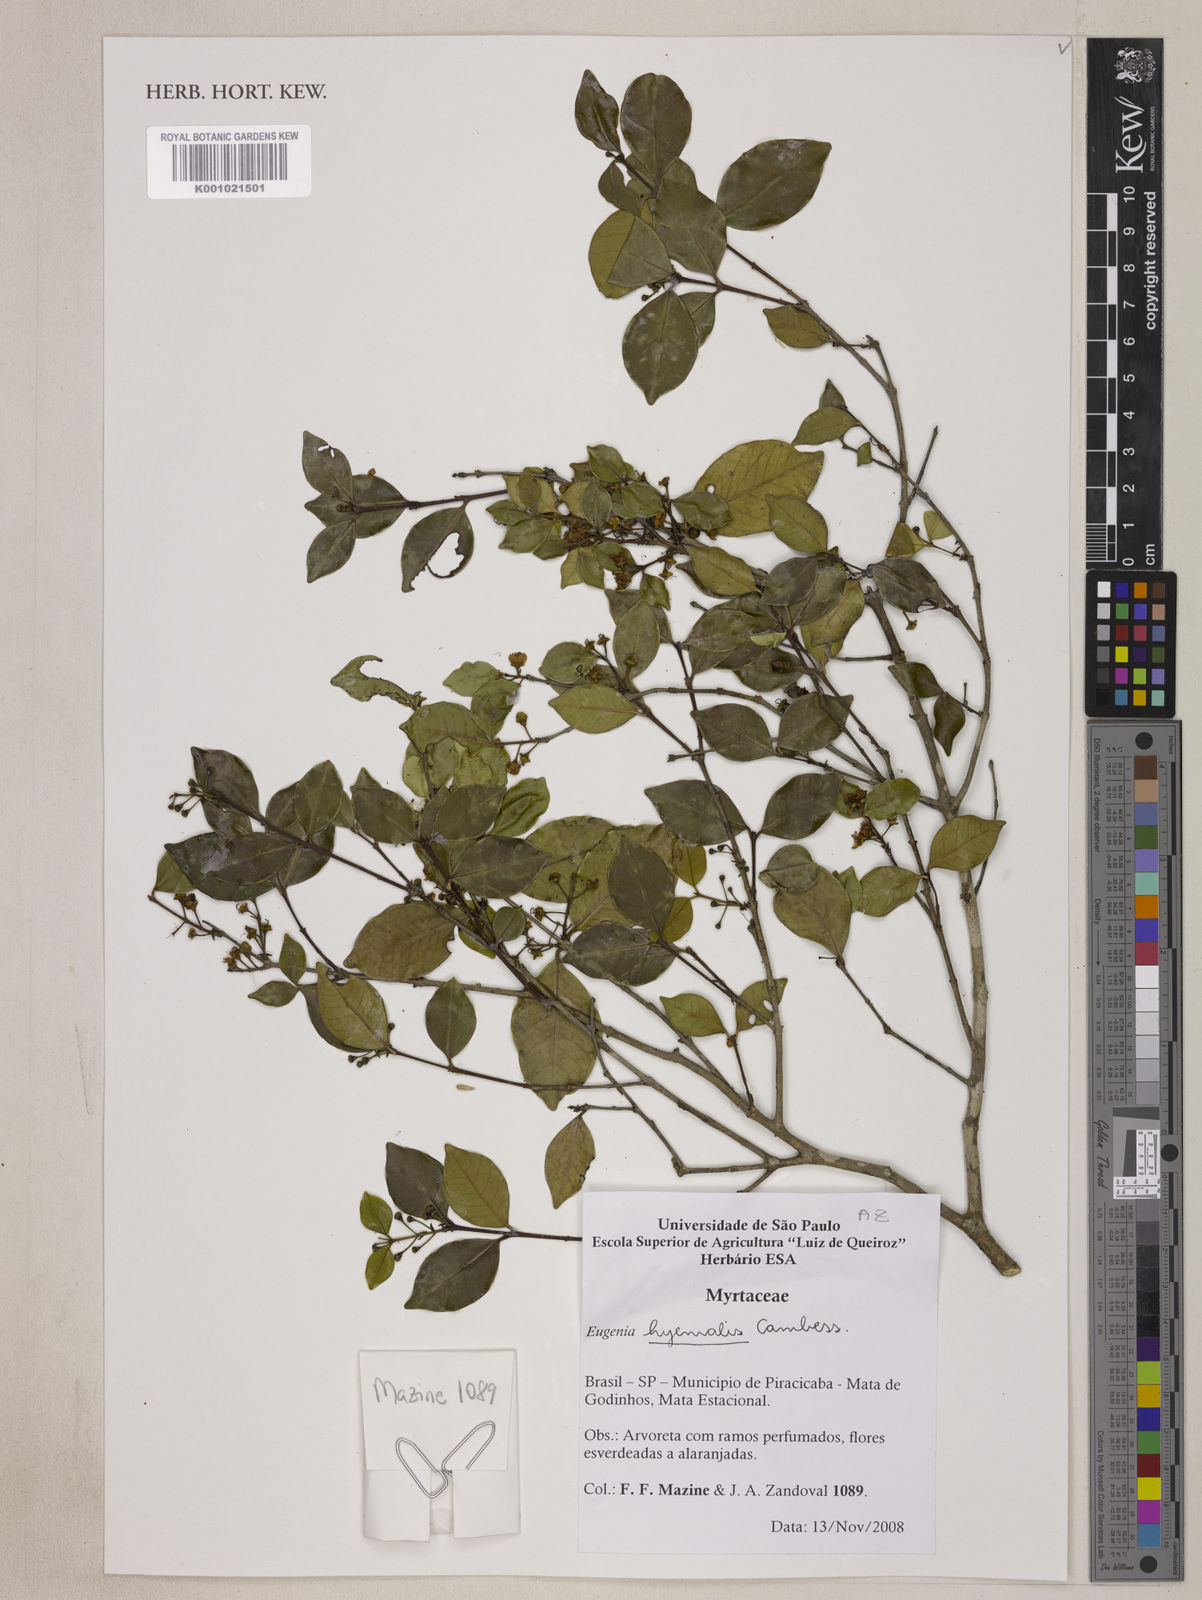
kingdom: Plantae
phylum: Tracheophyta
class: Magnoliopsida
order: Myrtales
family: Myrtaceae
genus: Eugenia
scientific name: Eugenia hiemalis
